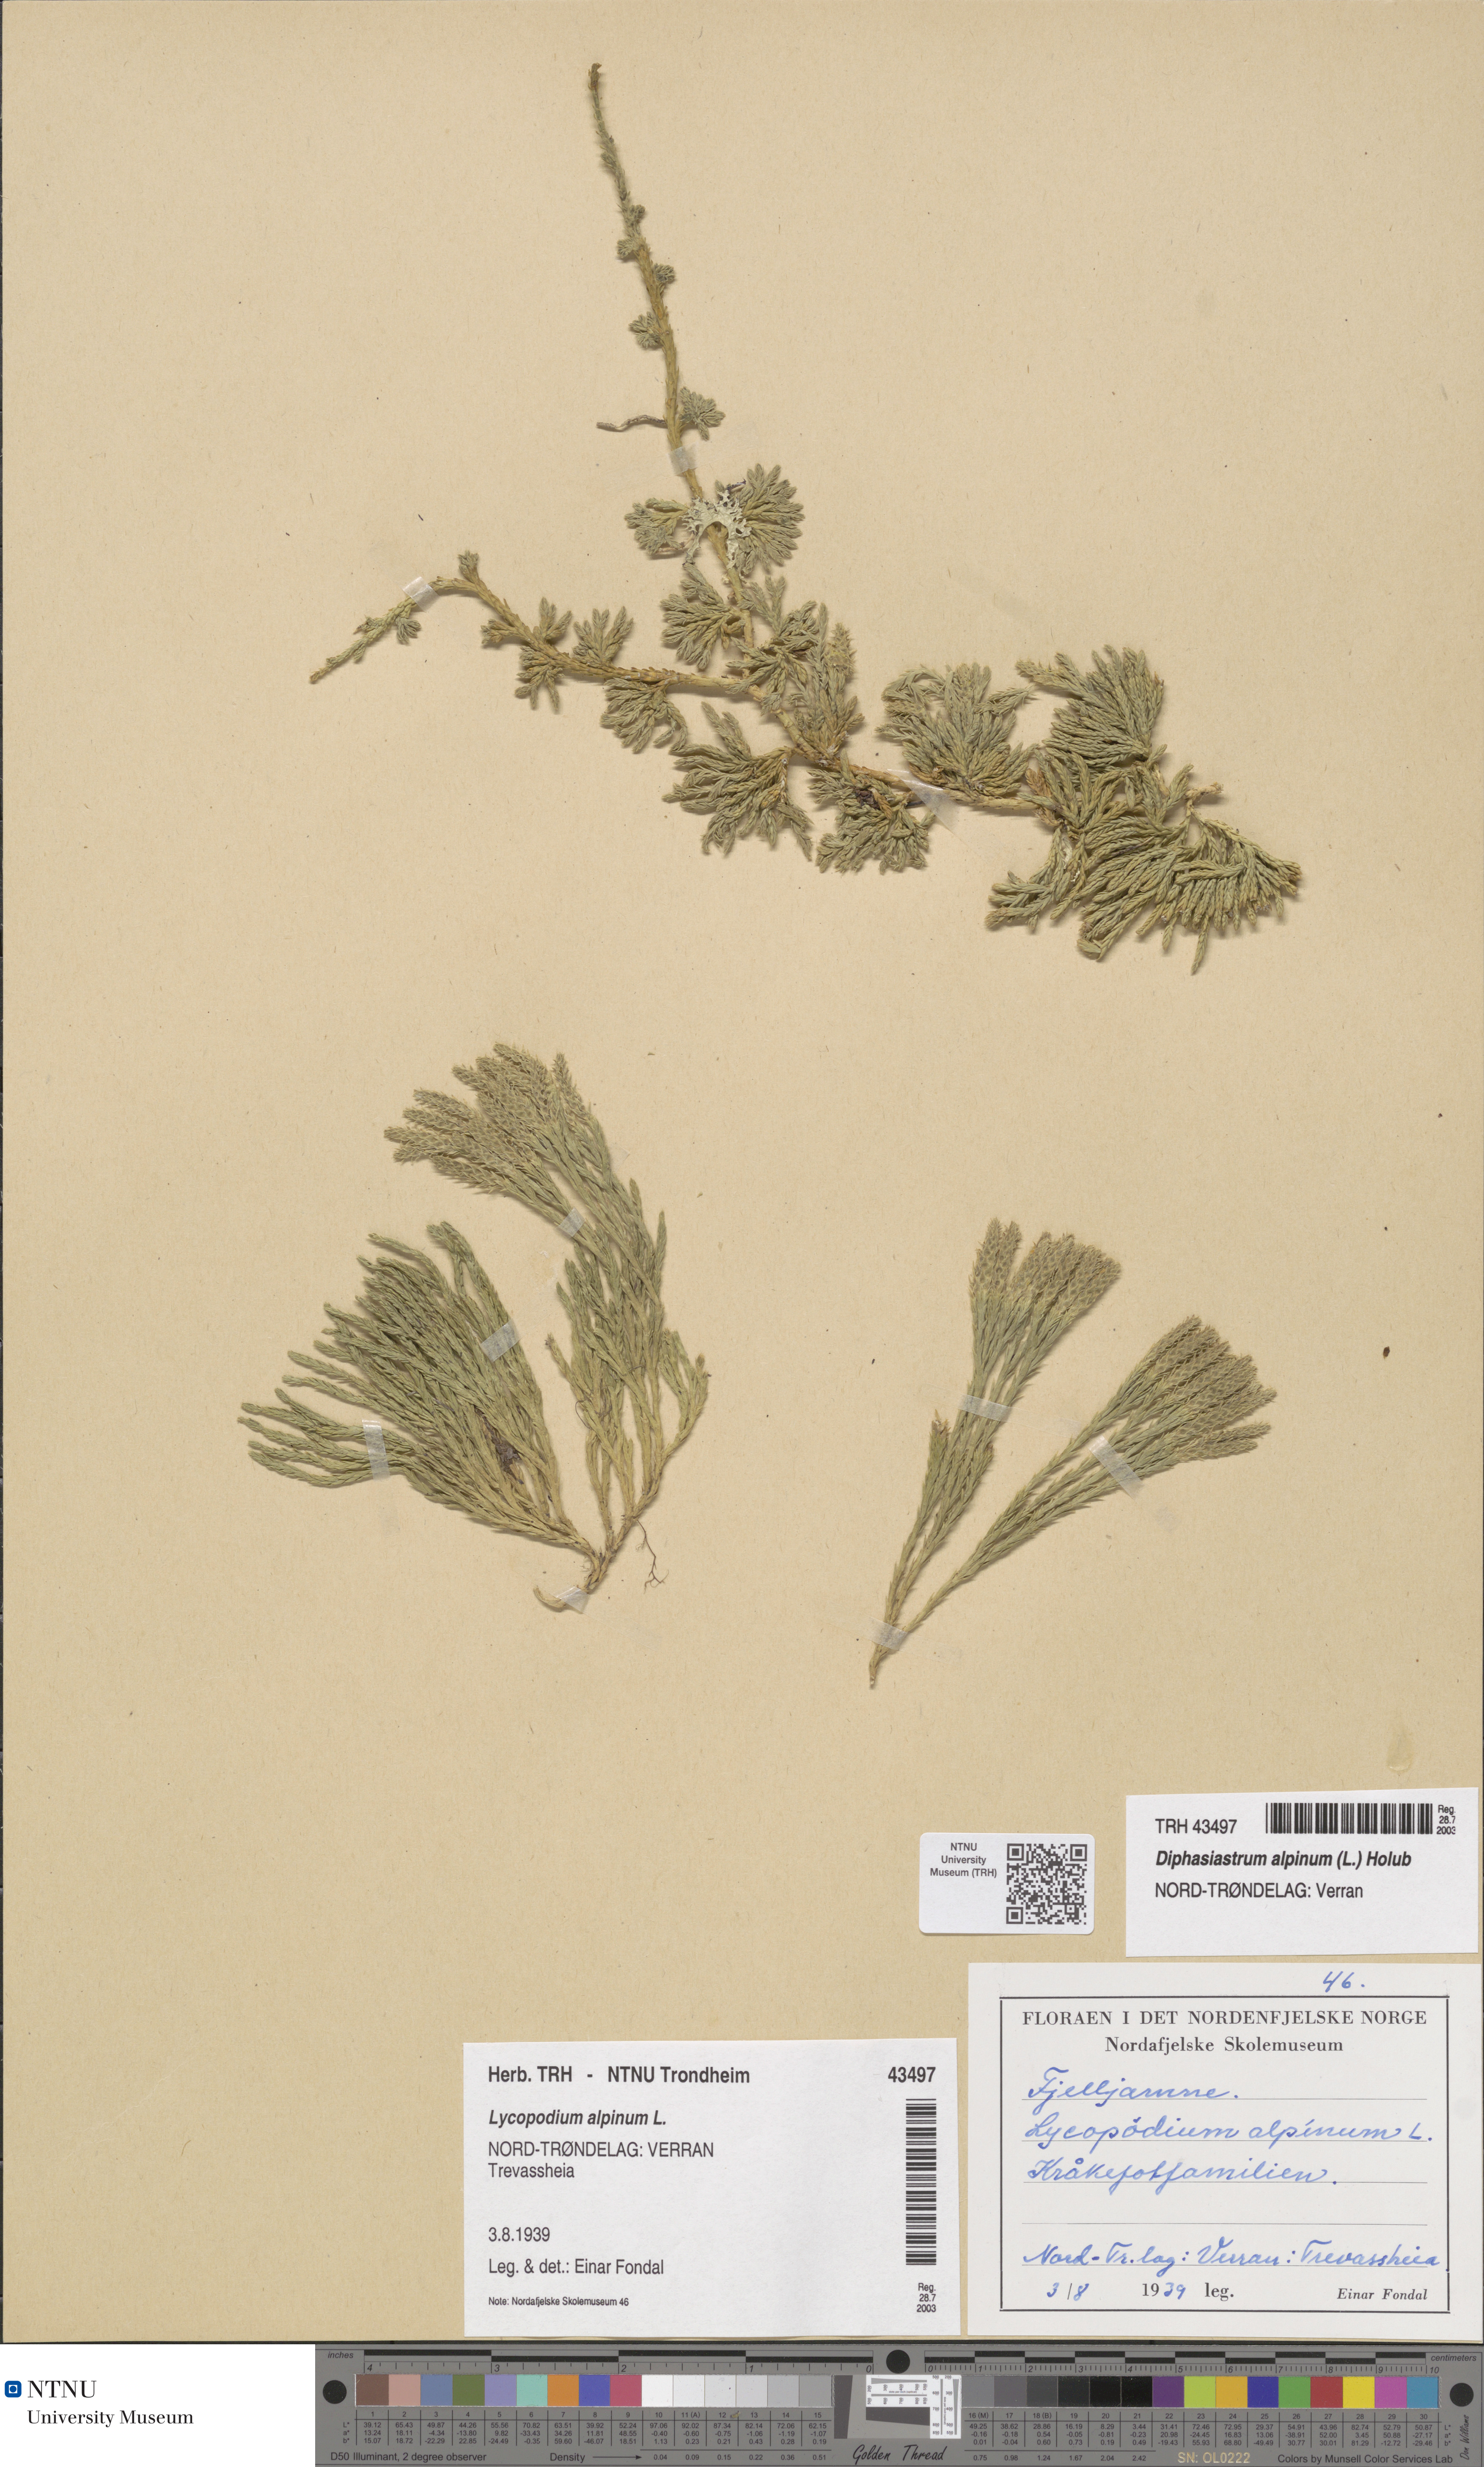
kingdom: Plantae
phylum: Tracheophyta
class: Lycopodiopsida
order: Lycopodiales
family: Lycopodiaceae
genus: Diphasiastrum
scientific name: Diphasiastrum alpinum
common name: Alpine clubmoss
